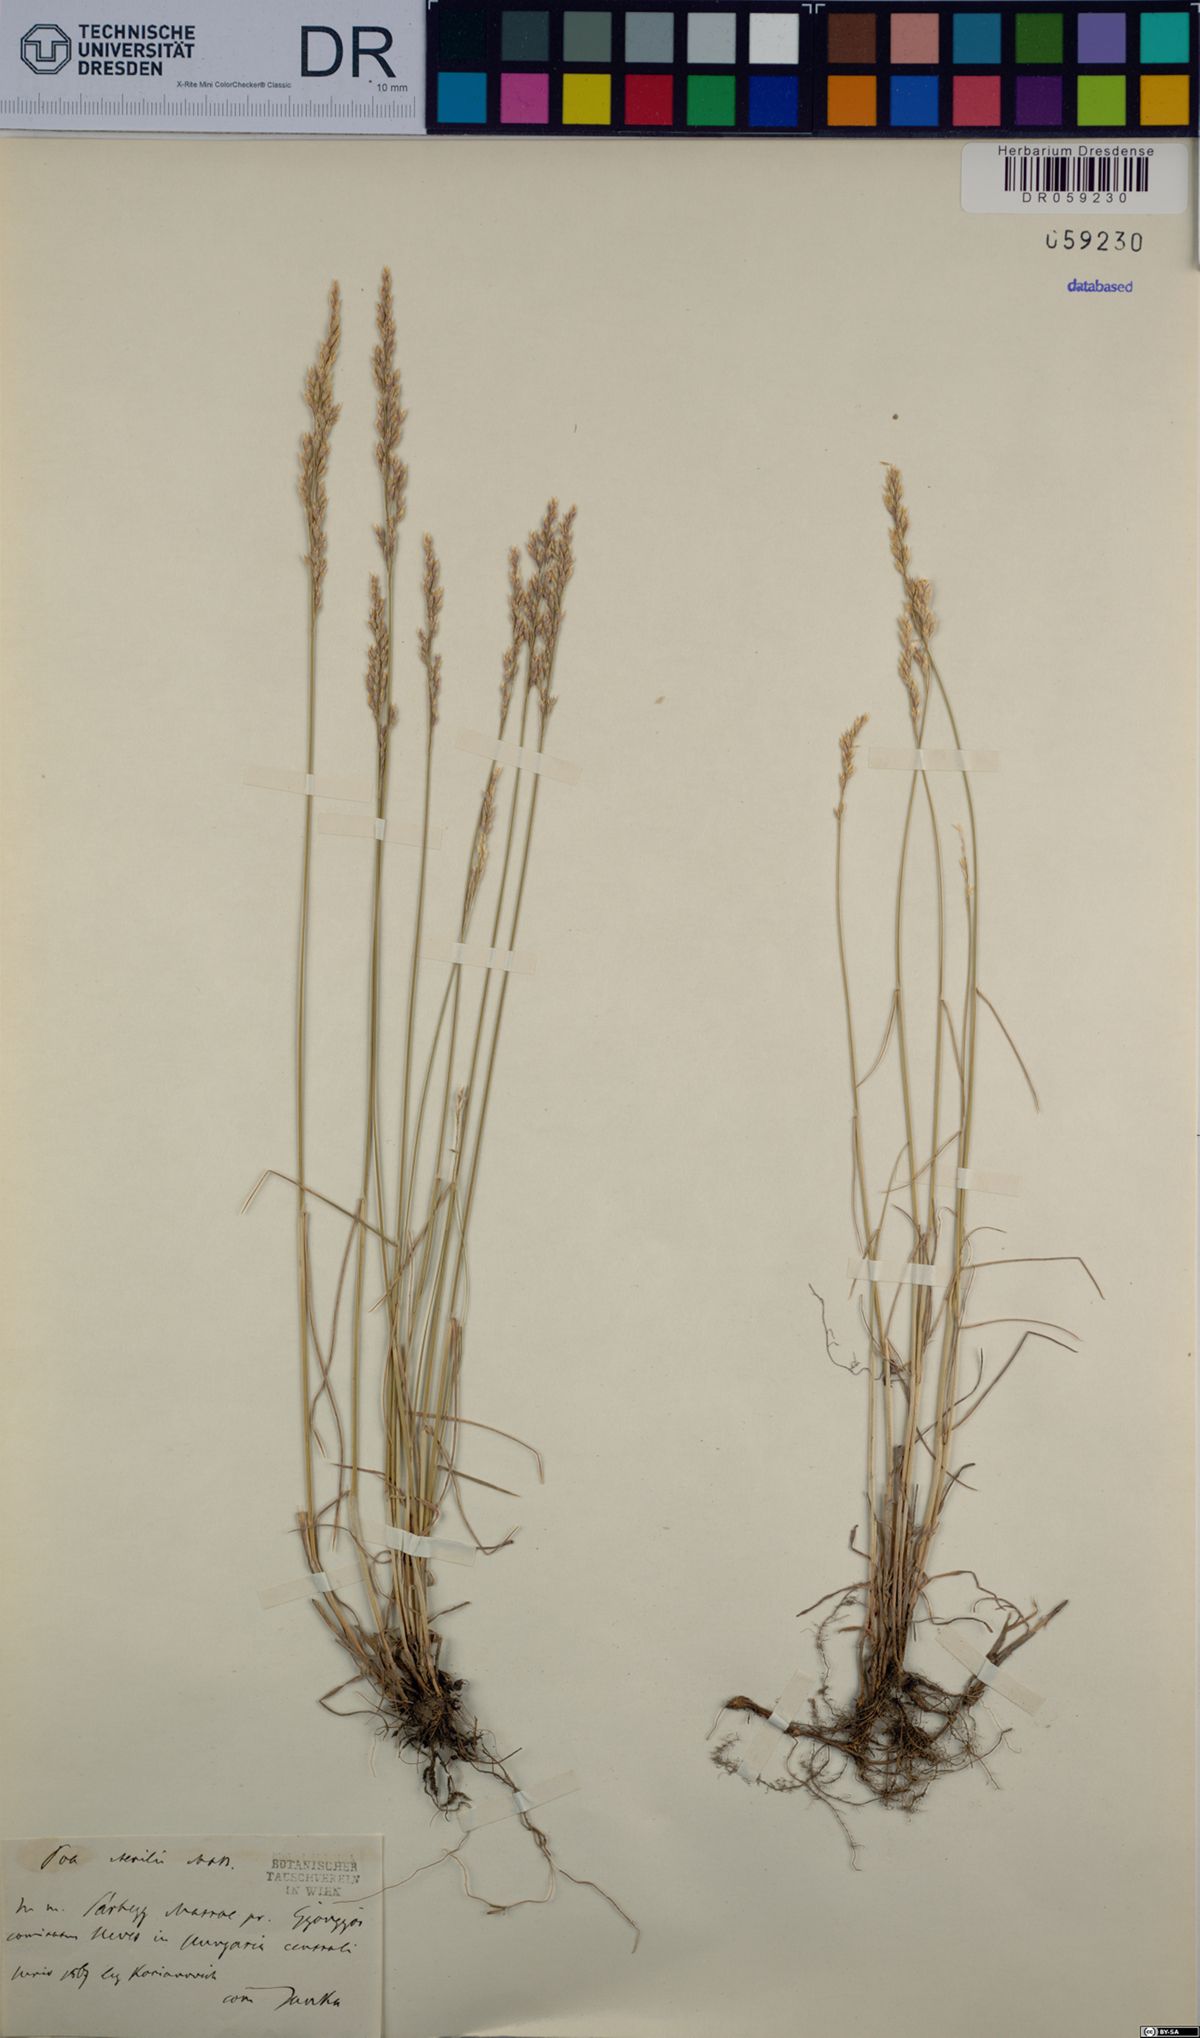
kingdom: Plantae
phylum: Tracheophyta
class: Liliopsida
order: Poales
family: Poaceae
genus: Poa
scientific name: Poa sterilis
